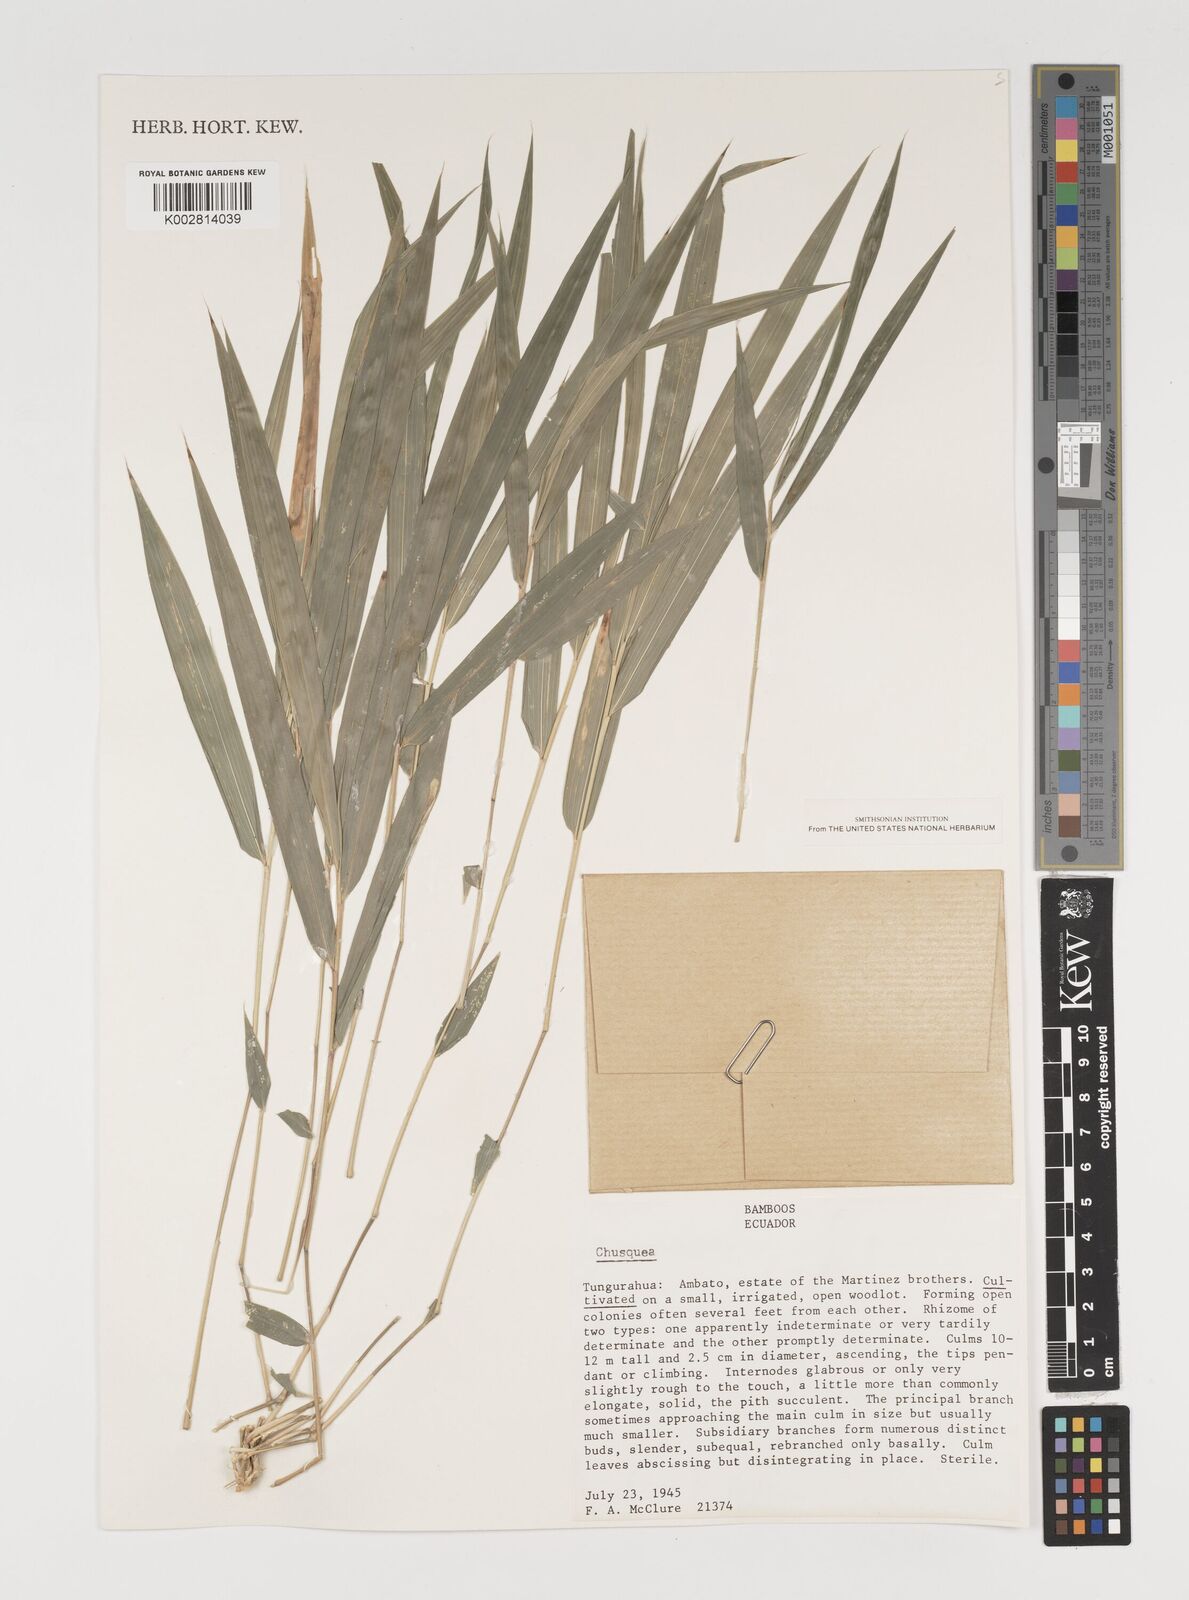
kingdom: Plantae
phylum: Tracheophyta
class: Liliopsida
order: Poales
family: Poaceae
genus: Chusquea
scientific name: Chusquea
